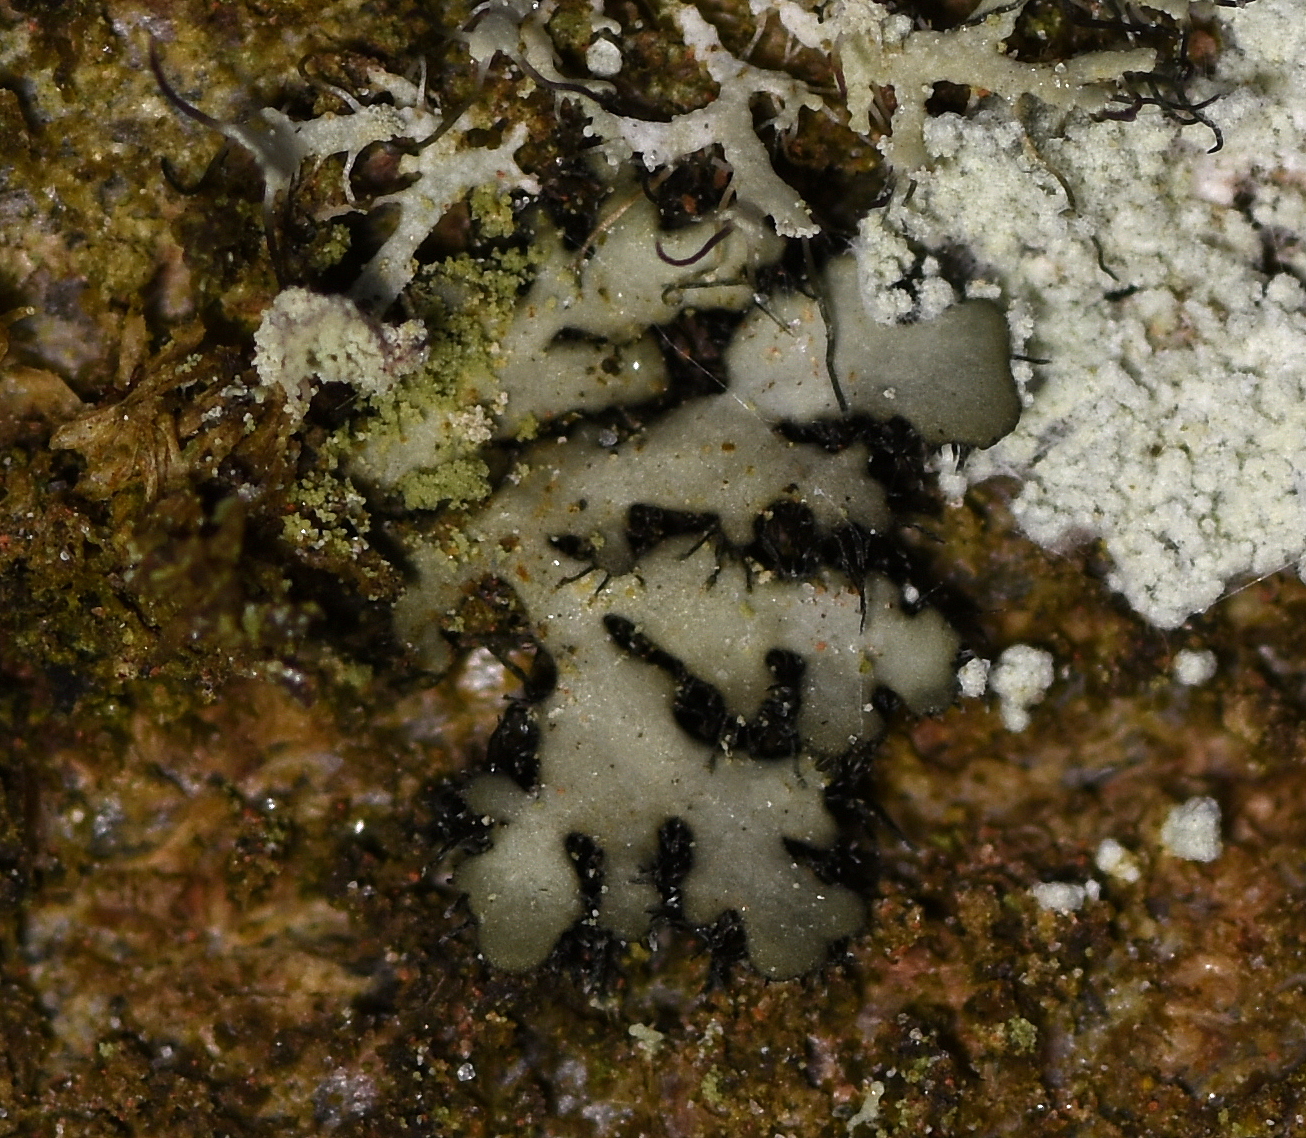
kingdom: Fungi
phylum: Ascomycota
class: Lecanoromycetes
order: Caliciales
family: Physciaceae
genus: Phaeophyscia
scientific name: Phaeophyscia orbicularis
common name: grågrøn rosetlav
